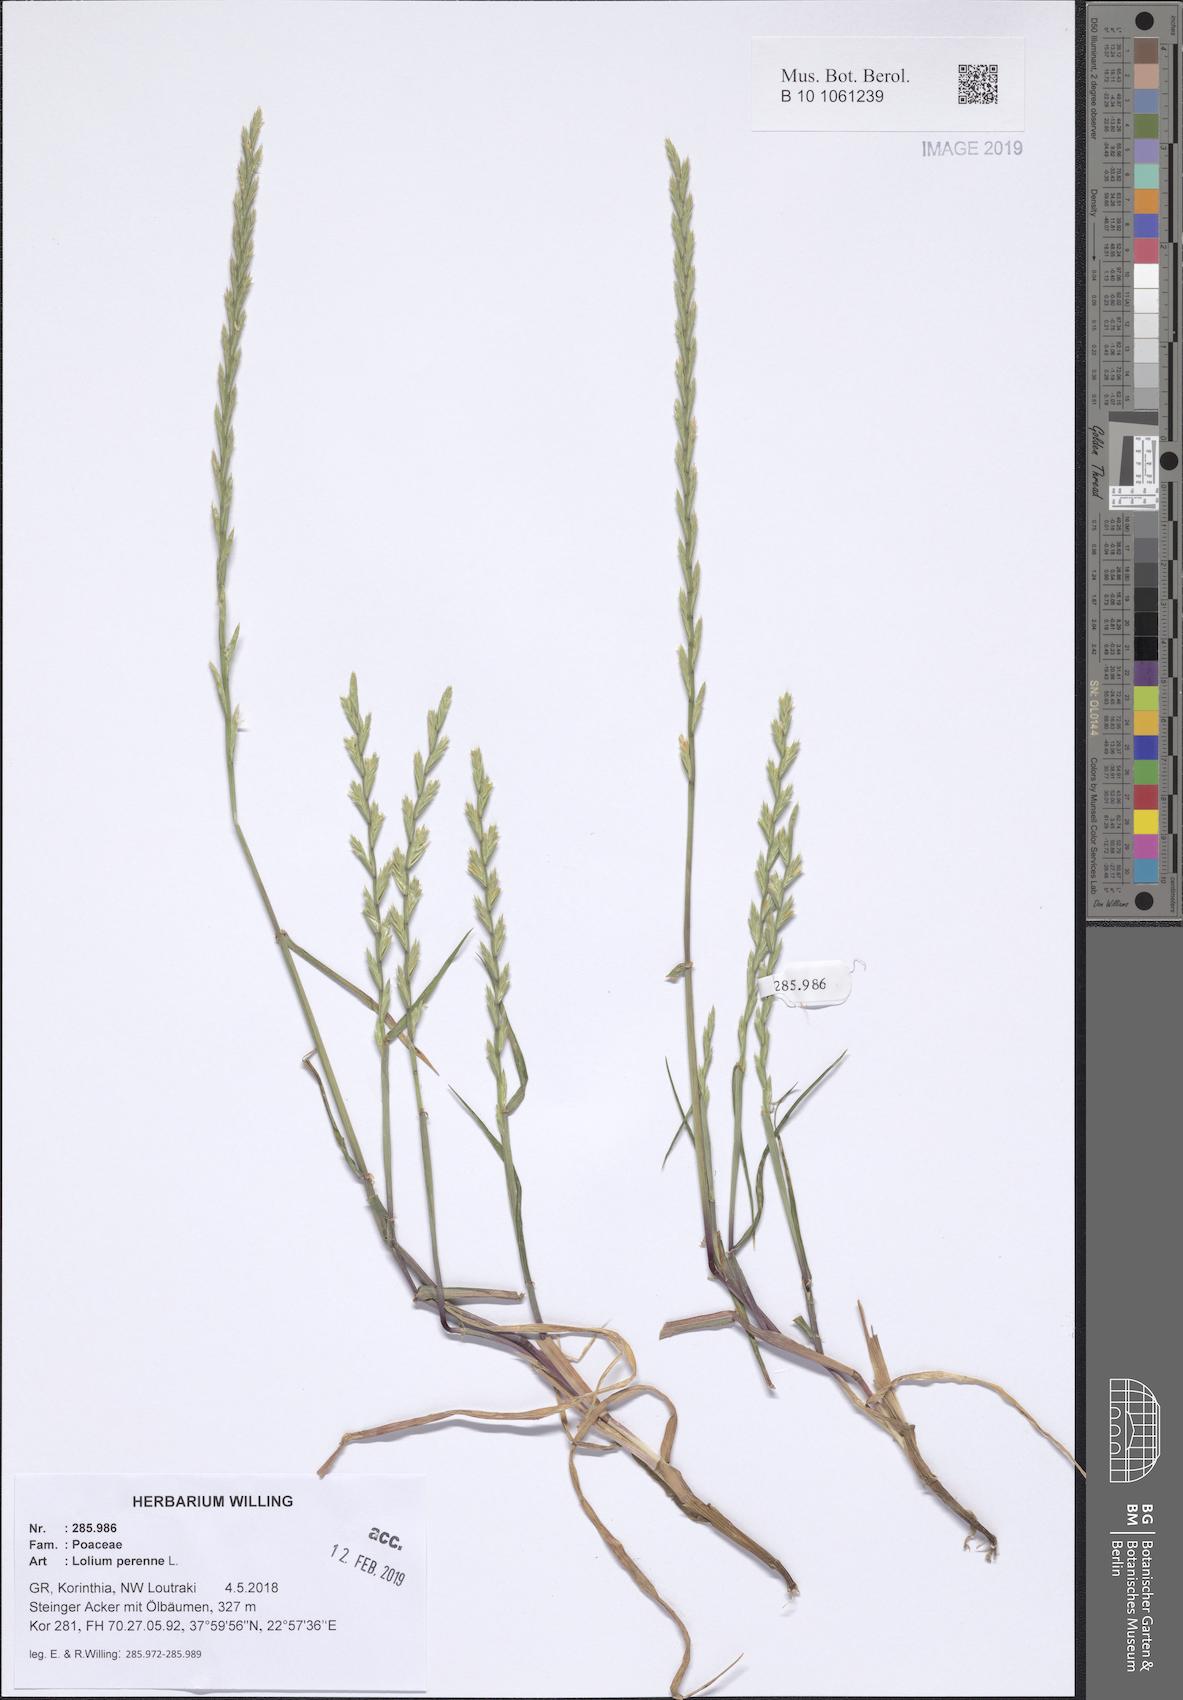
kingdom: Plantae
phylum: Tracheophyta
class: Liliopsida
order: Poales
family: Poaceae
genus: Lolium
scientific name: Lolium perenne
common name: Perennial ryegrass
